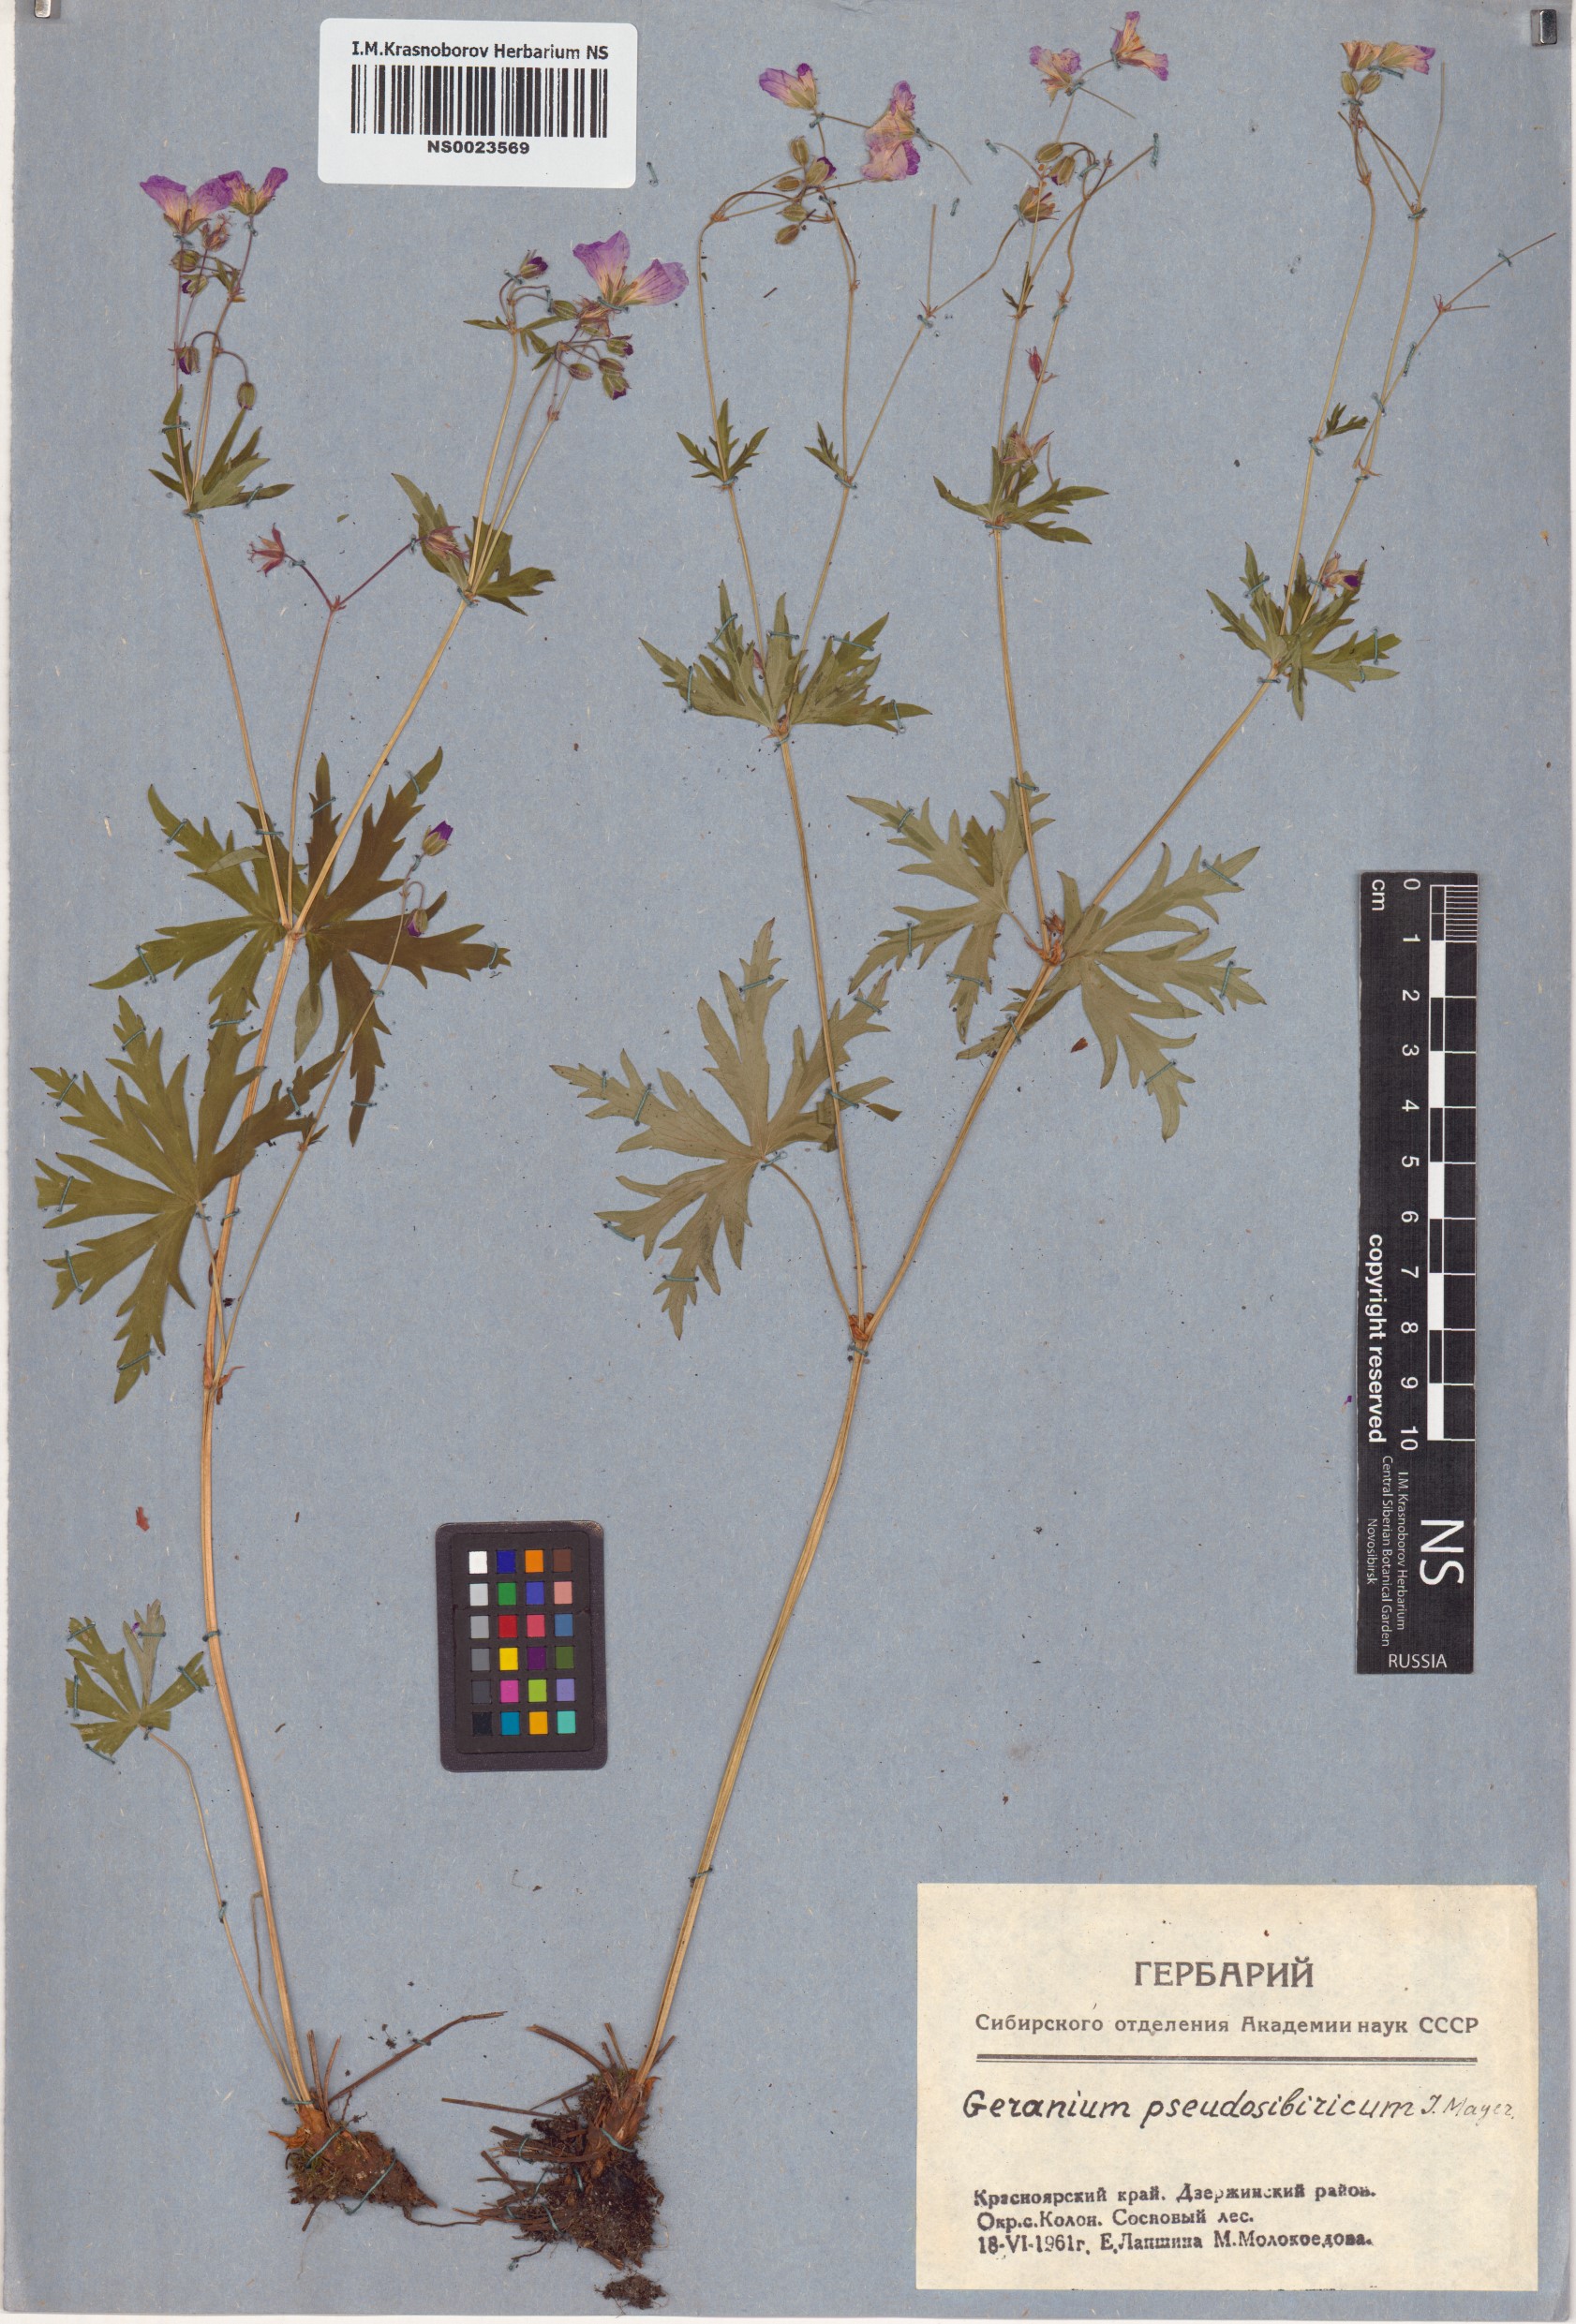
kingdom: Plantae
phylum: Tracheophyta
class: Magnoliopsida
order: Geraniales
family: Geraniaceae
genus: Geranium
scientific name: Geranium pseudosibiricum
